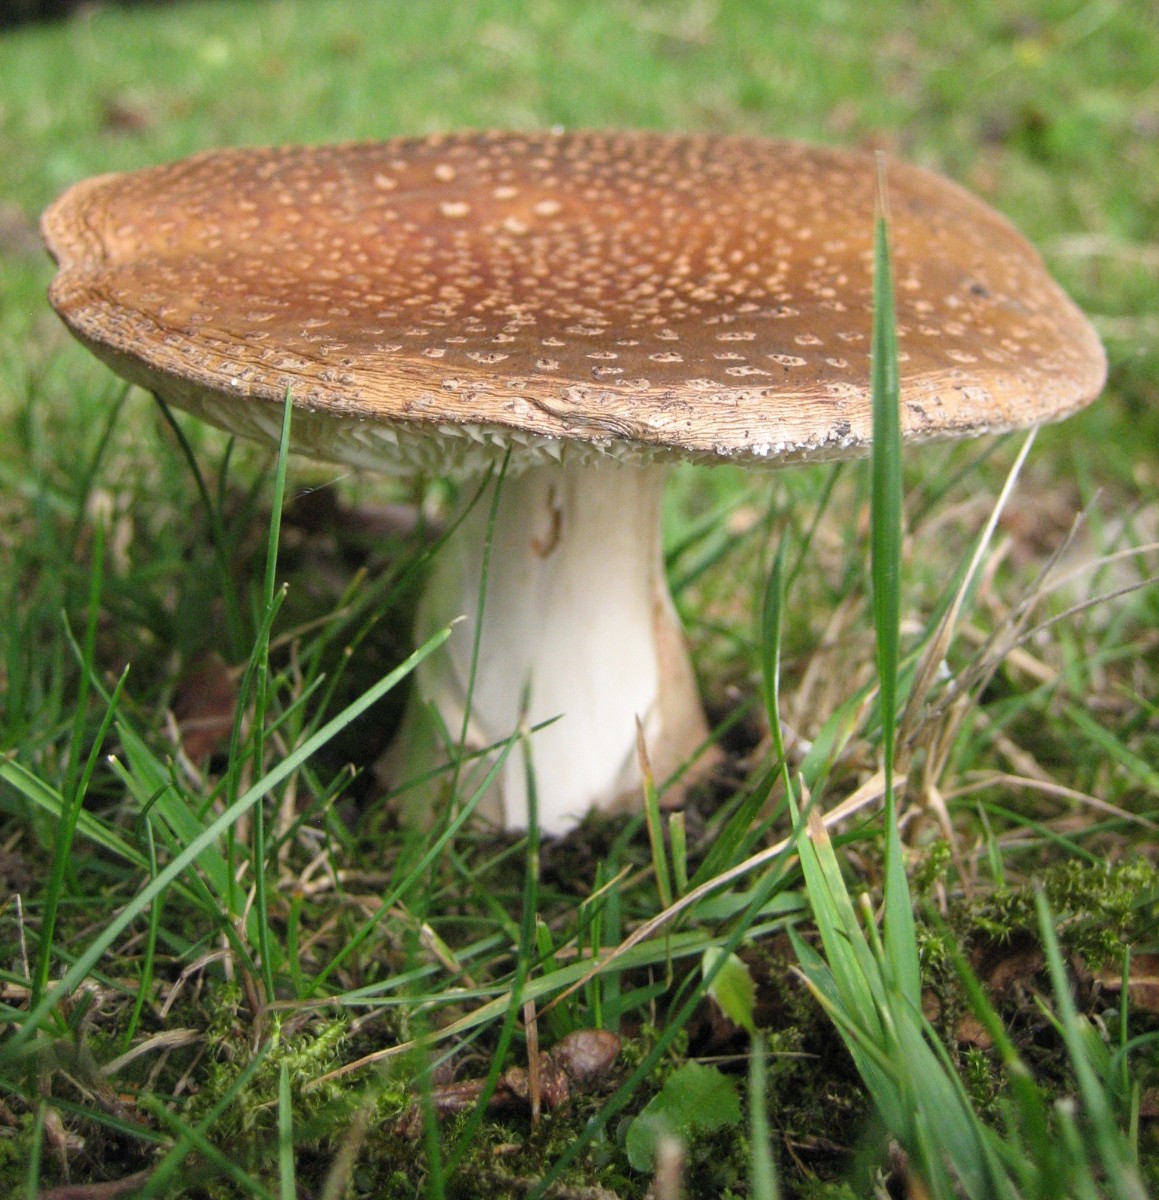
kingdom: Fungi
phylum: Basidiomycota
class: Agaricomycetes
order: Agaricales
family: Amanitaceae
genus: Amanita
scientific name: Amanita rubescens
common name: rødmende fluesvamp
